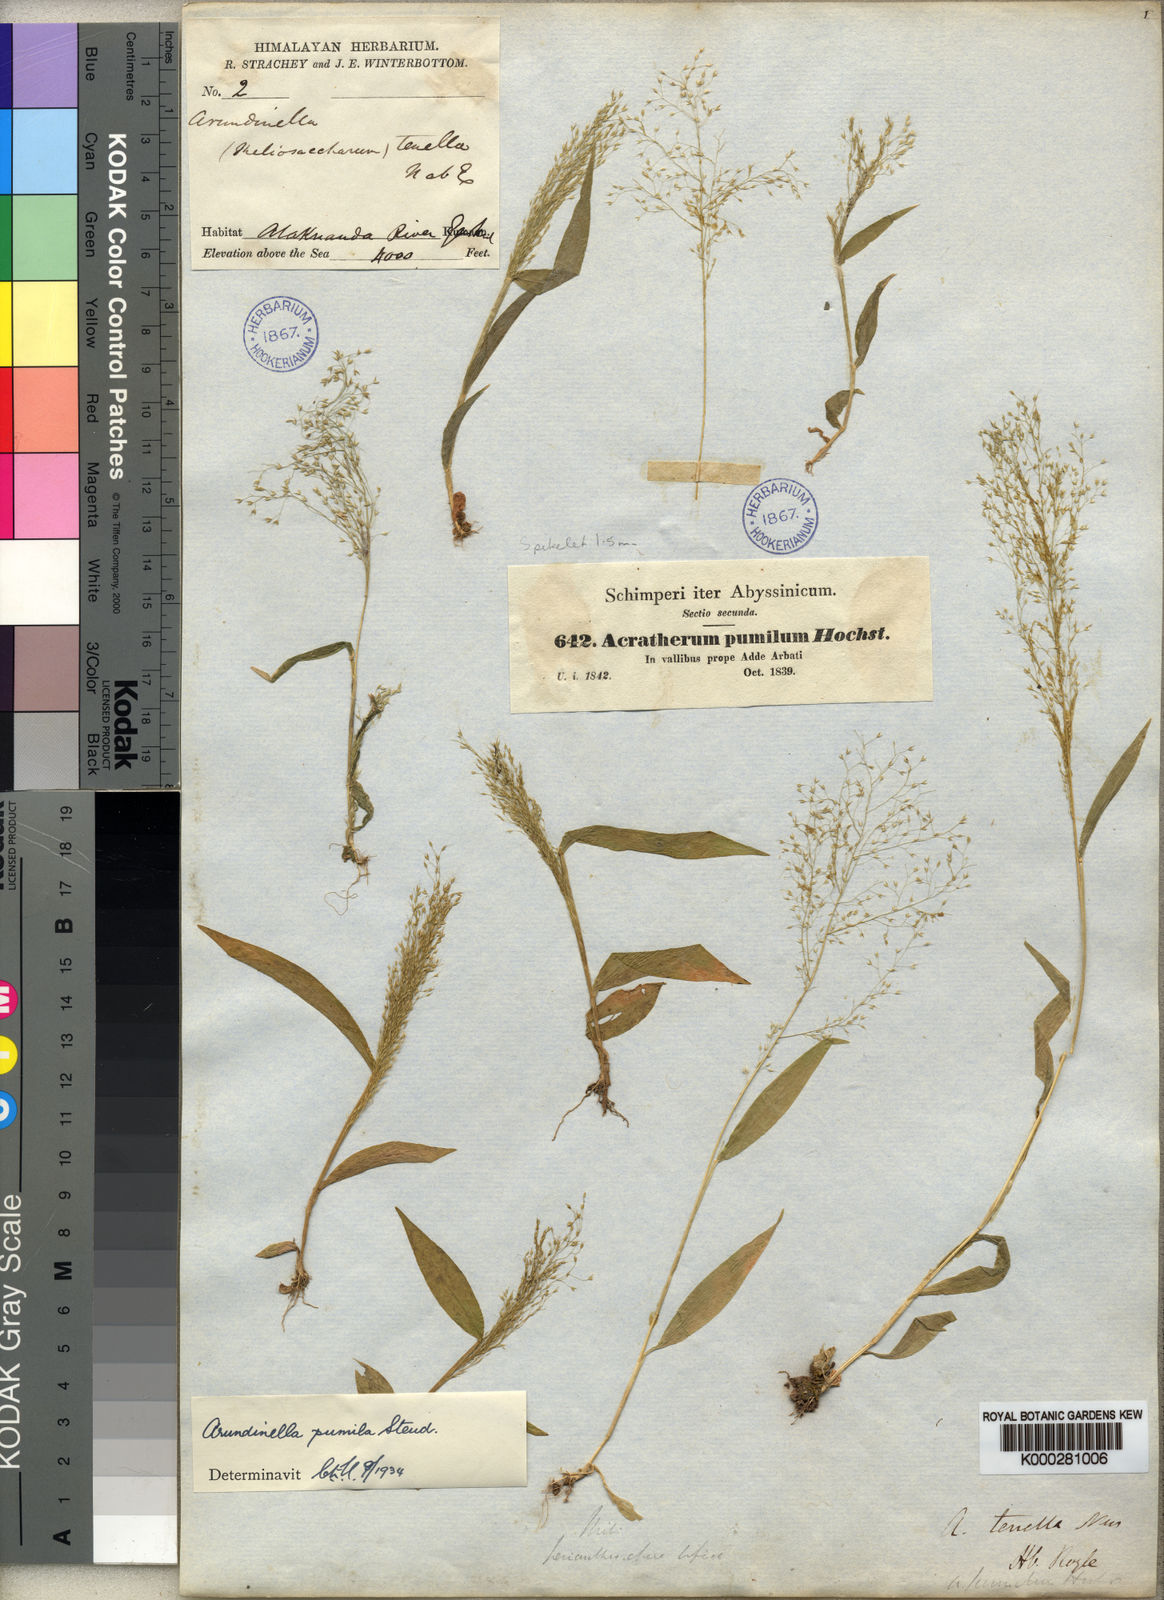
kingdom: Plantae
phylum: Tracheophyta
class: Liliopsida
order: Poales
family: Poaceae
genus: Arundinella
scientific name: Arundinella pumila
